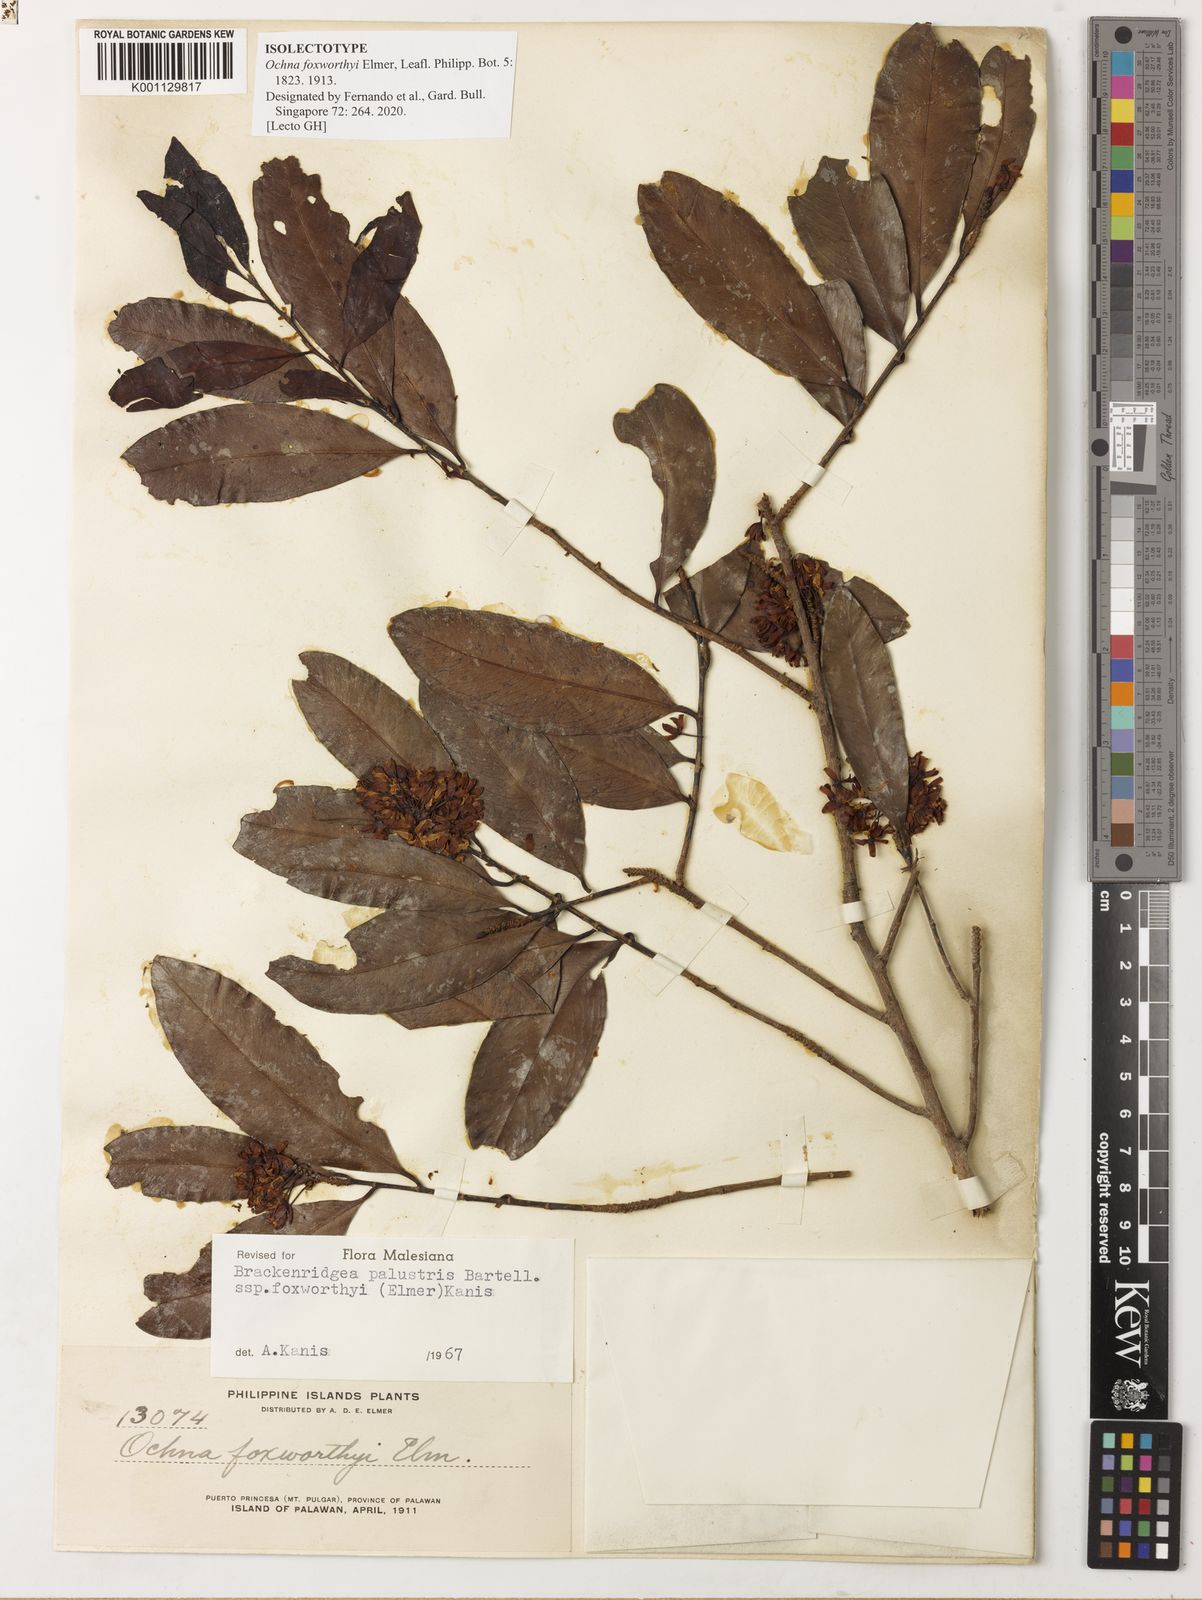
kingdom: Plantae
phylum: Tracheophyta
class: Magnoliopsida
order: Malpighiales
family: Ochnaceae
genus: Brackenridgea
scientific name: Brackenridgea
